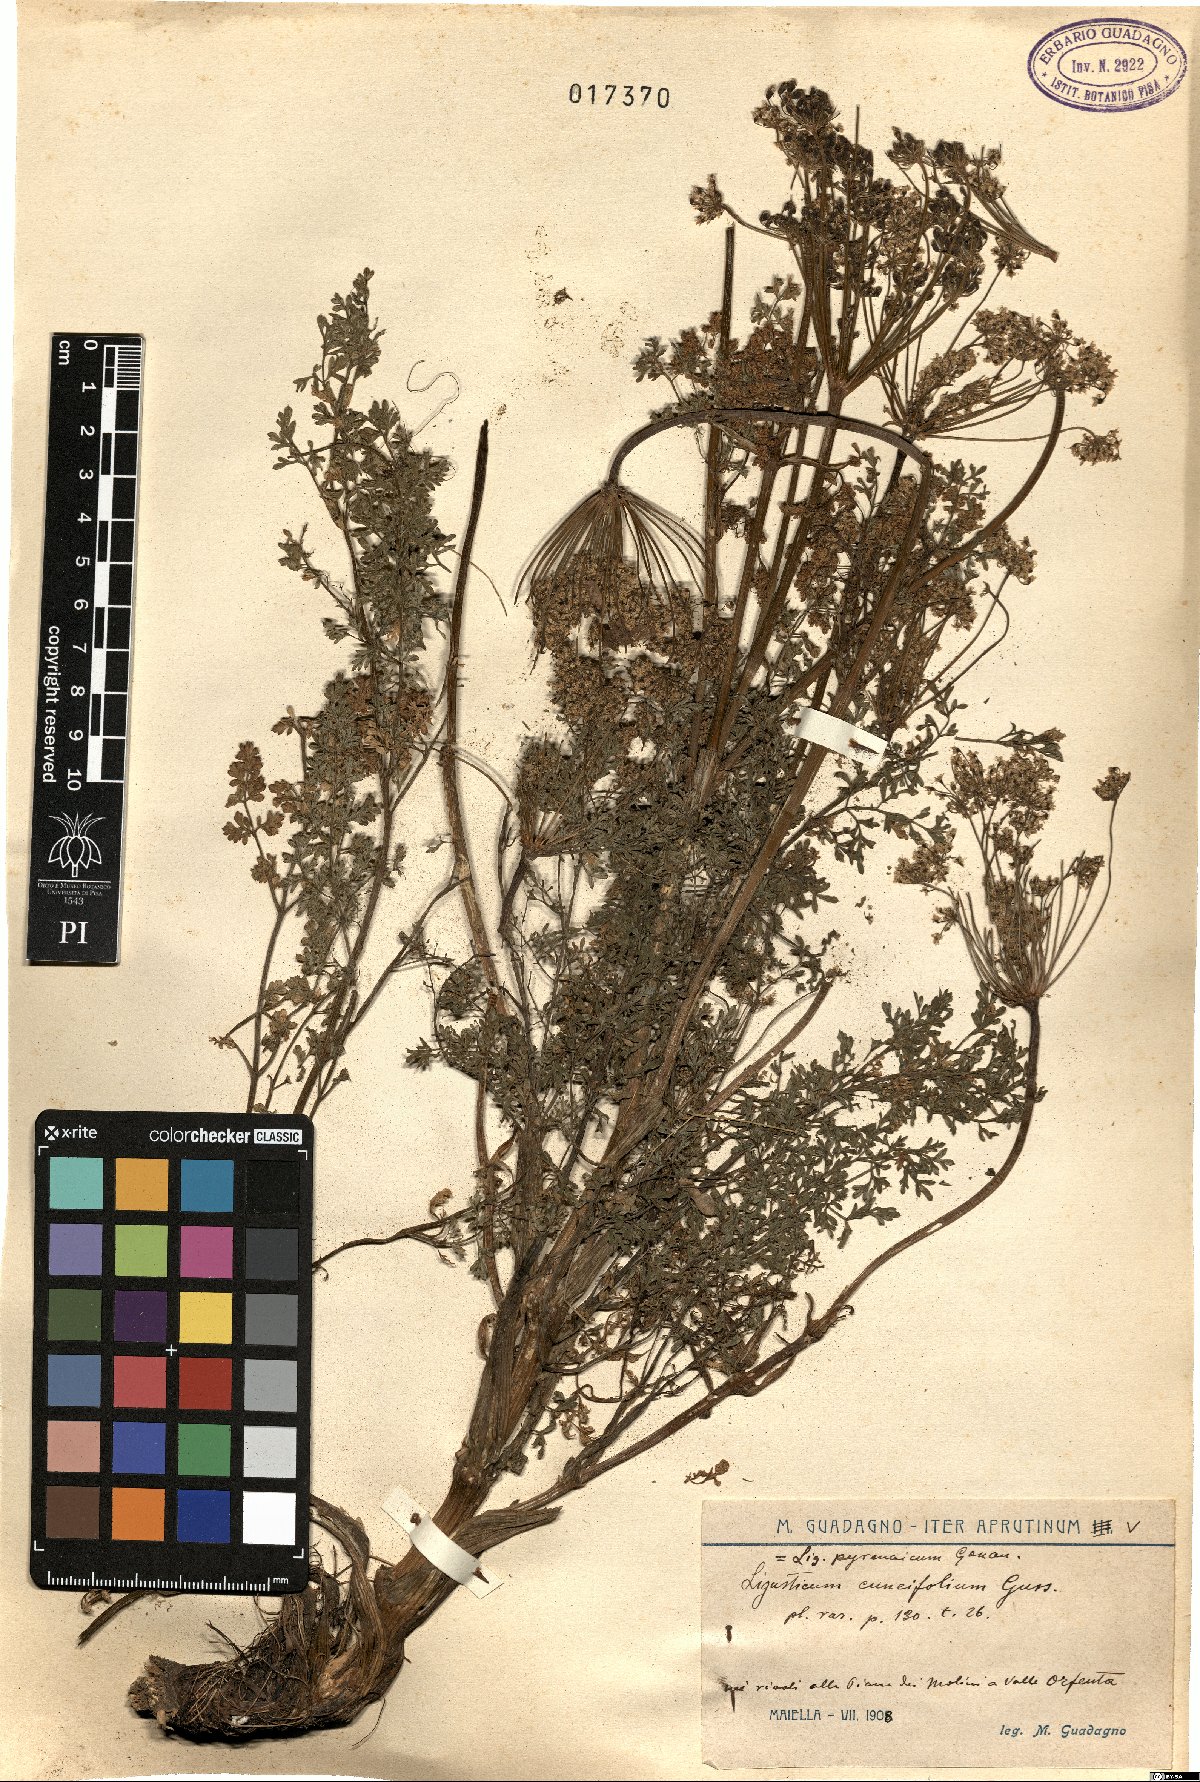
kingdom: Plantae
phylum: Tracheophyta
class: Magnoliopsida
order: Apiales
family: Apiaceae
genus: Coristospermum
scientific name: Coristospermum cuneifolium
